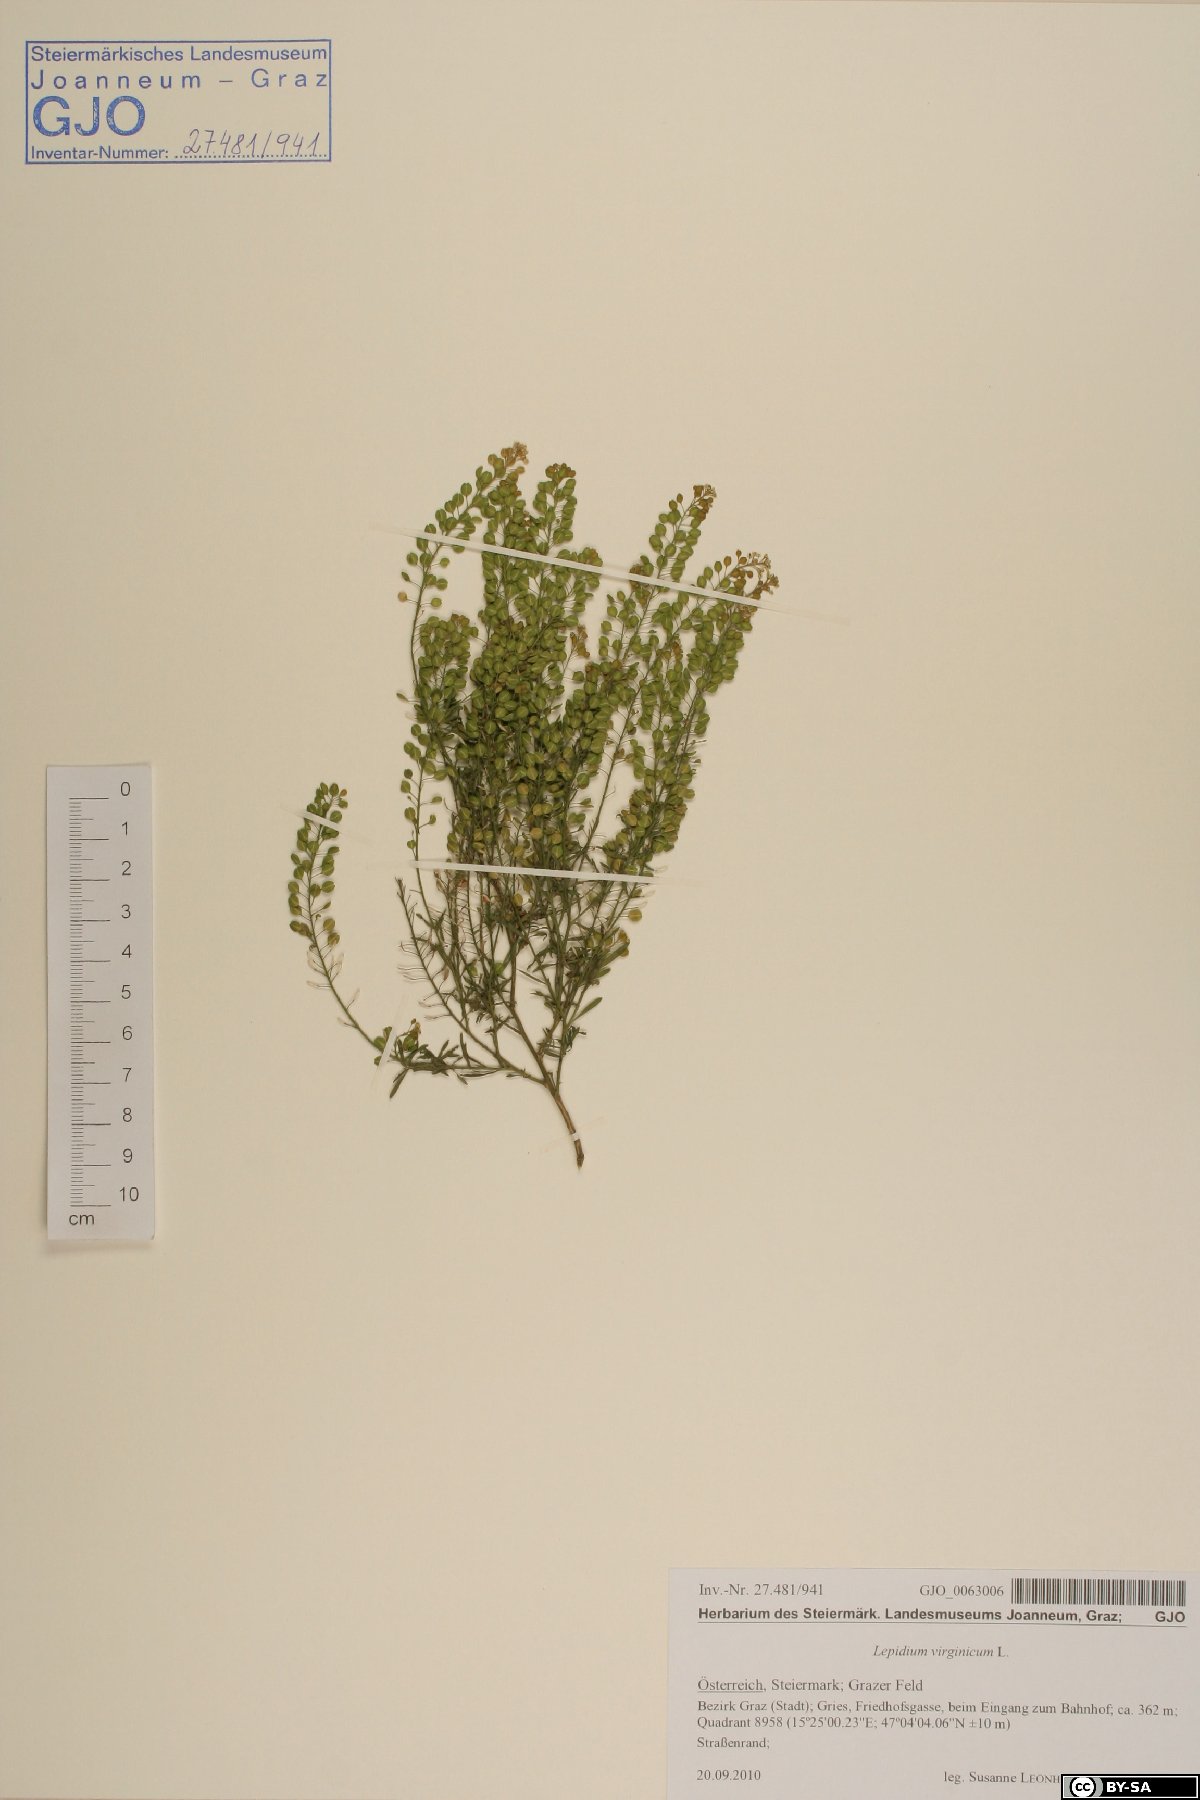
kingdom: Plantae
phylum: Tracheophyta
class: Magnoliopsida
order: Brassicales
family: Brassicaceae
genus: Lepidium
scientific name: Lepidium virginicum
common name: Least pepperwort
